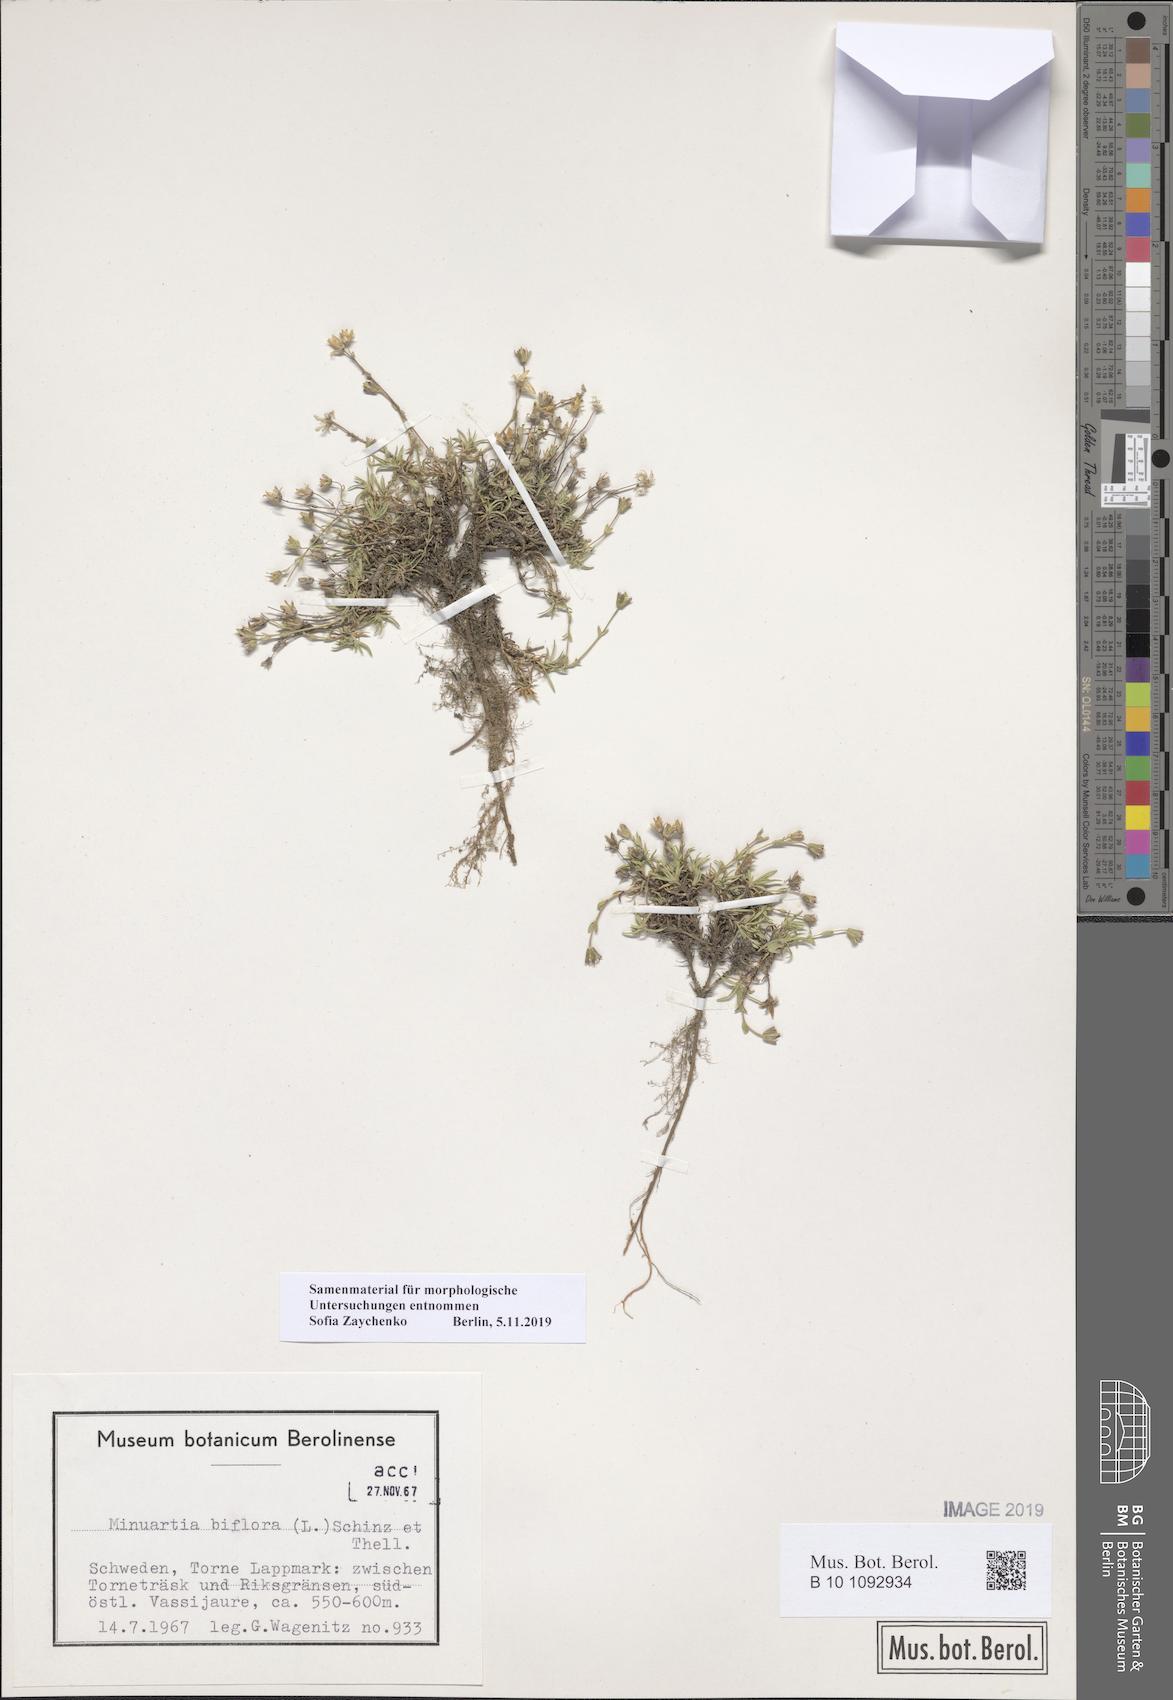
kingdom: Plantae
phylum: Tracheophyta
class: Magnoliopsida
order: Caryophyllales
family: Caryophyllaceae
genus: Cherleria
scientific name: Cherleria biflora
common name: Mountain sandwort
